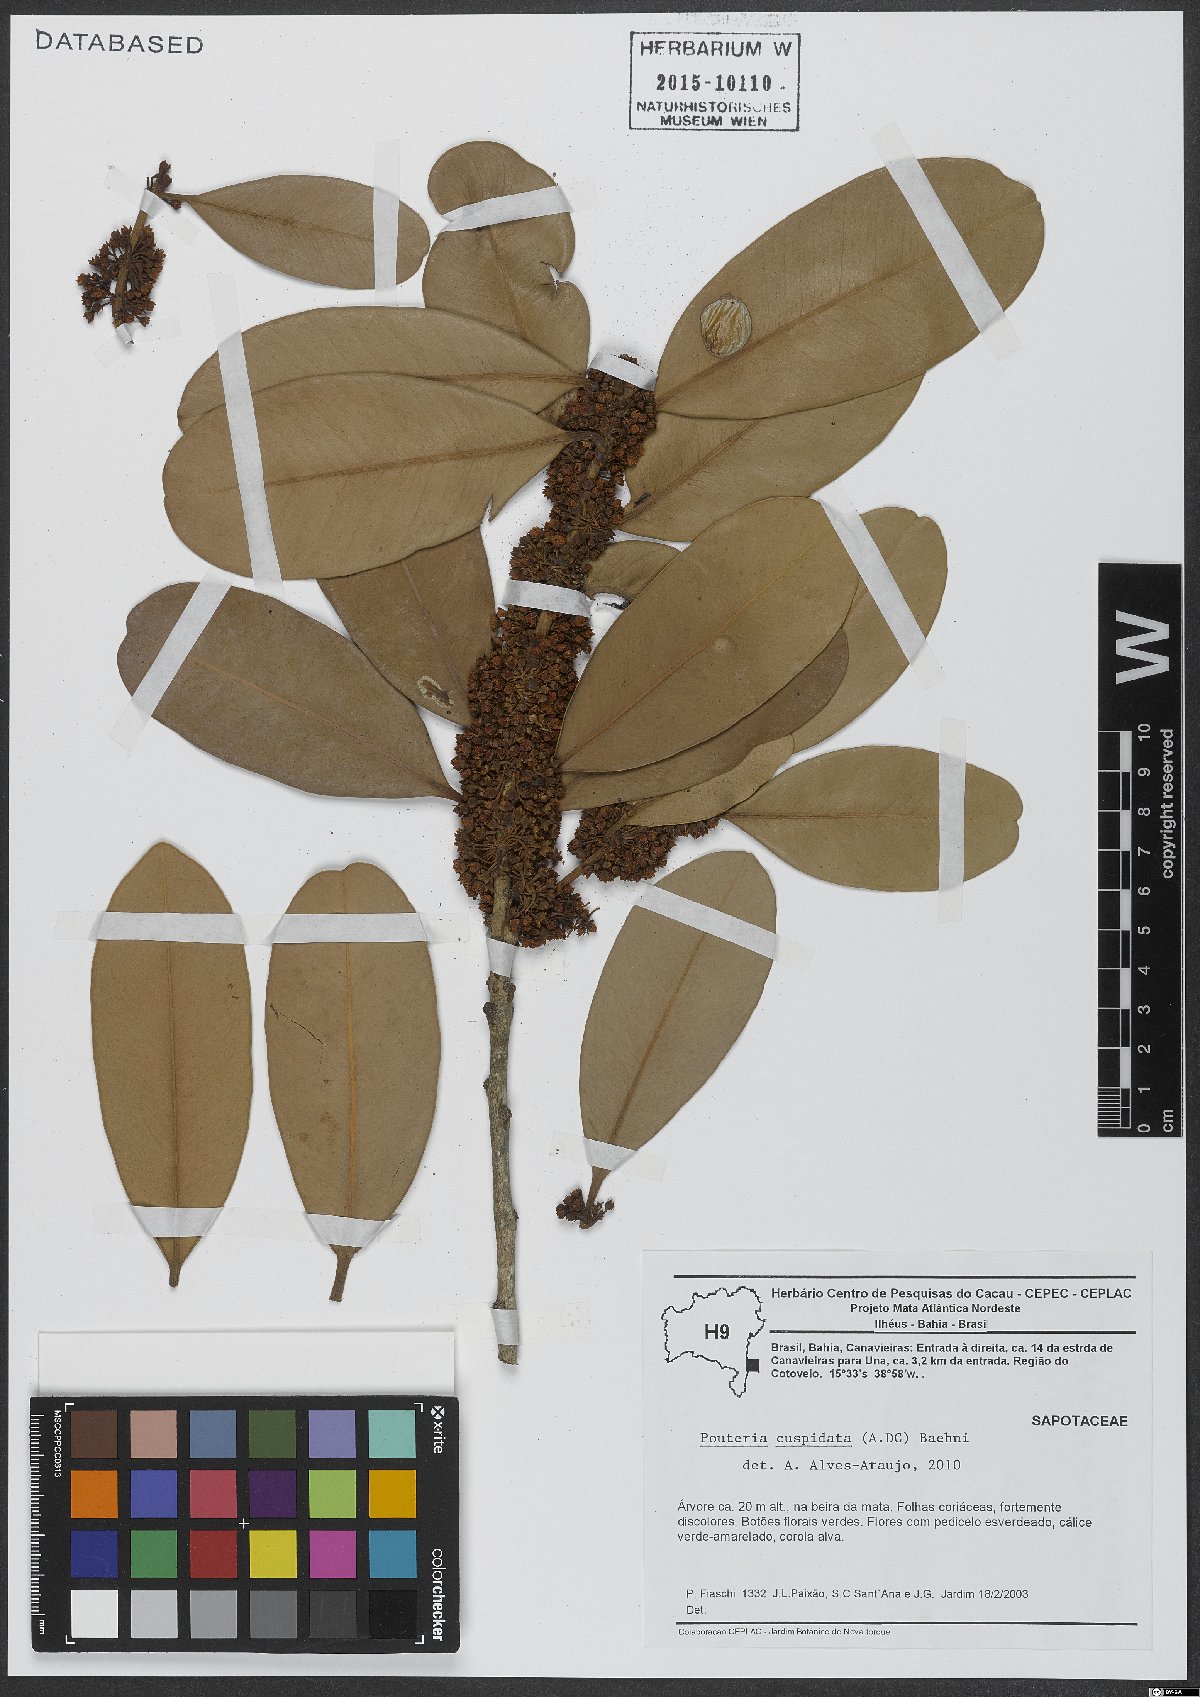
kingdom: Plantae
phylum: Tracheophyta
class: Magnoliopsida
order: Ericales
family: Sapotaceae
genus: Pouteria
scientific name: Pouteria cuspidata
